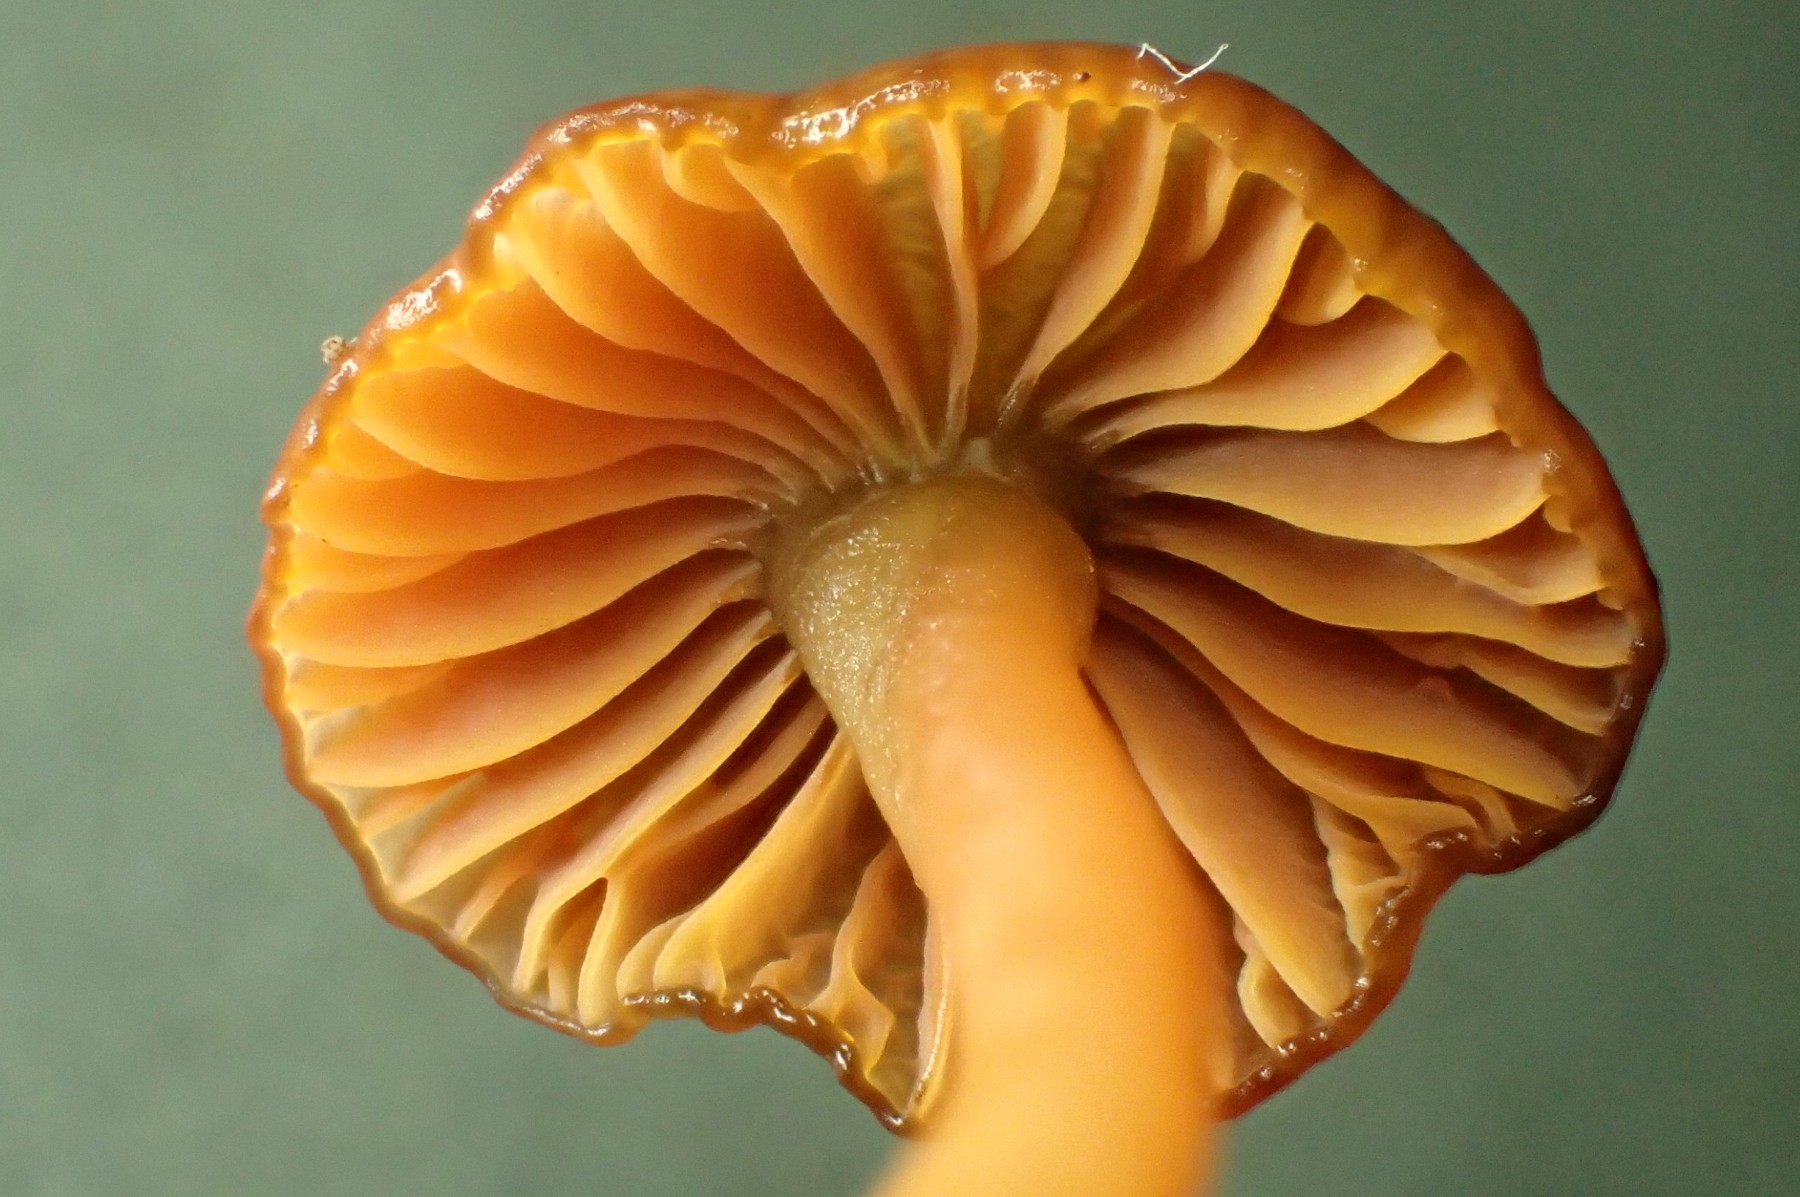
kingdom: Fungi
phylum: Basidiomycota
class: Agaricomycetes
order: Agaricales
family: Hygrophoraceae
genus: Gliophorus
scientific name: Gliophorus europerplexus
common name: Butterscotch waxcap
